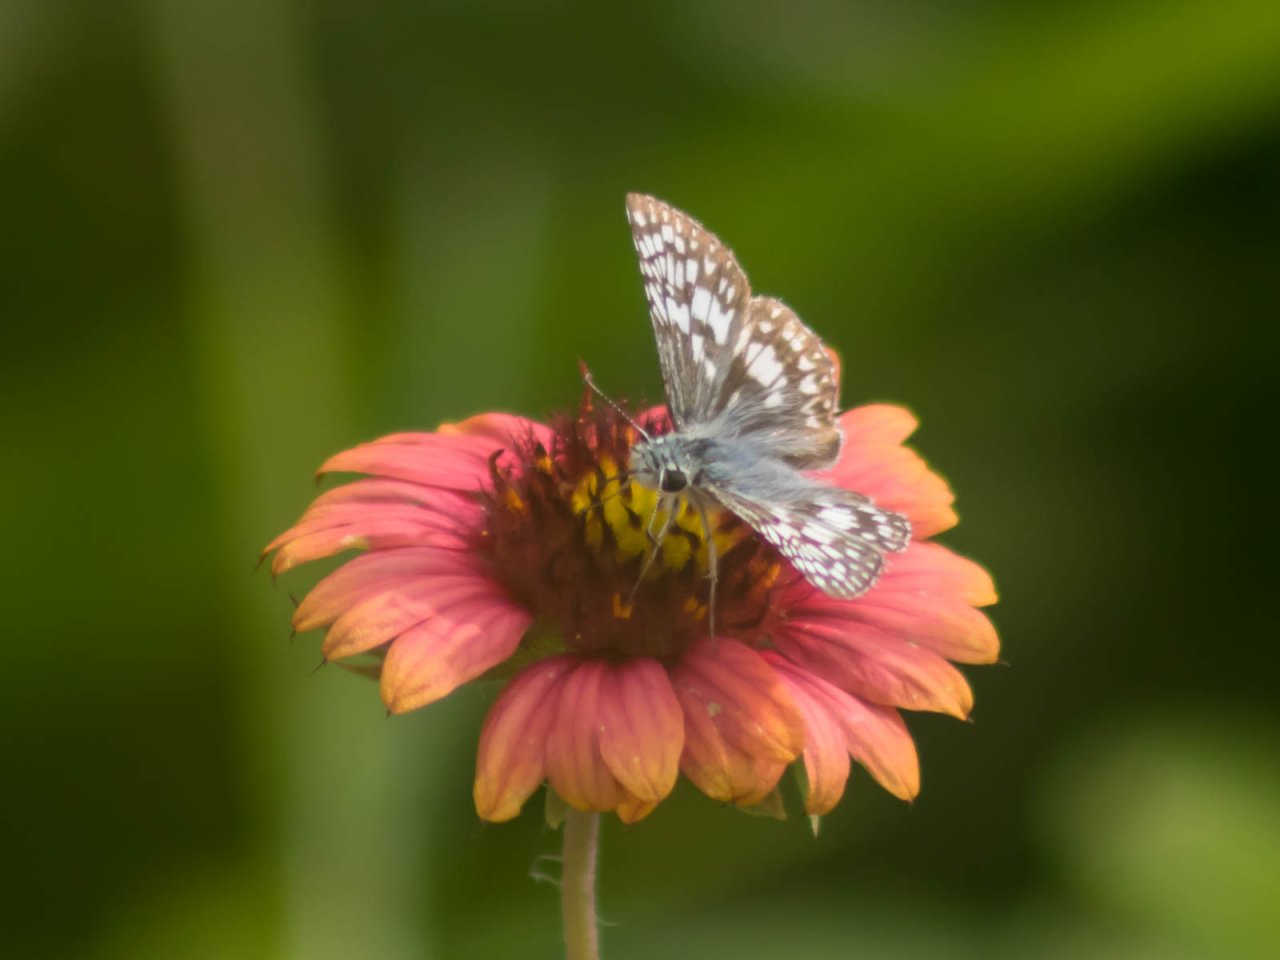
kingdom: Animalia
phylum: Arthropoda
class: Insecta
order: Lepidoptera
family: Hesperiidae
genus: Pyrgus
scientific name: Pyrgus
